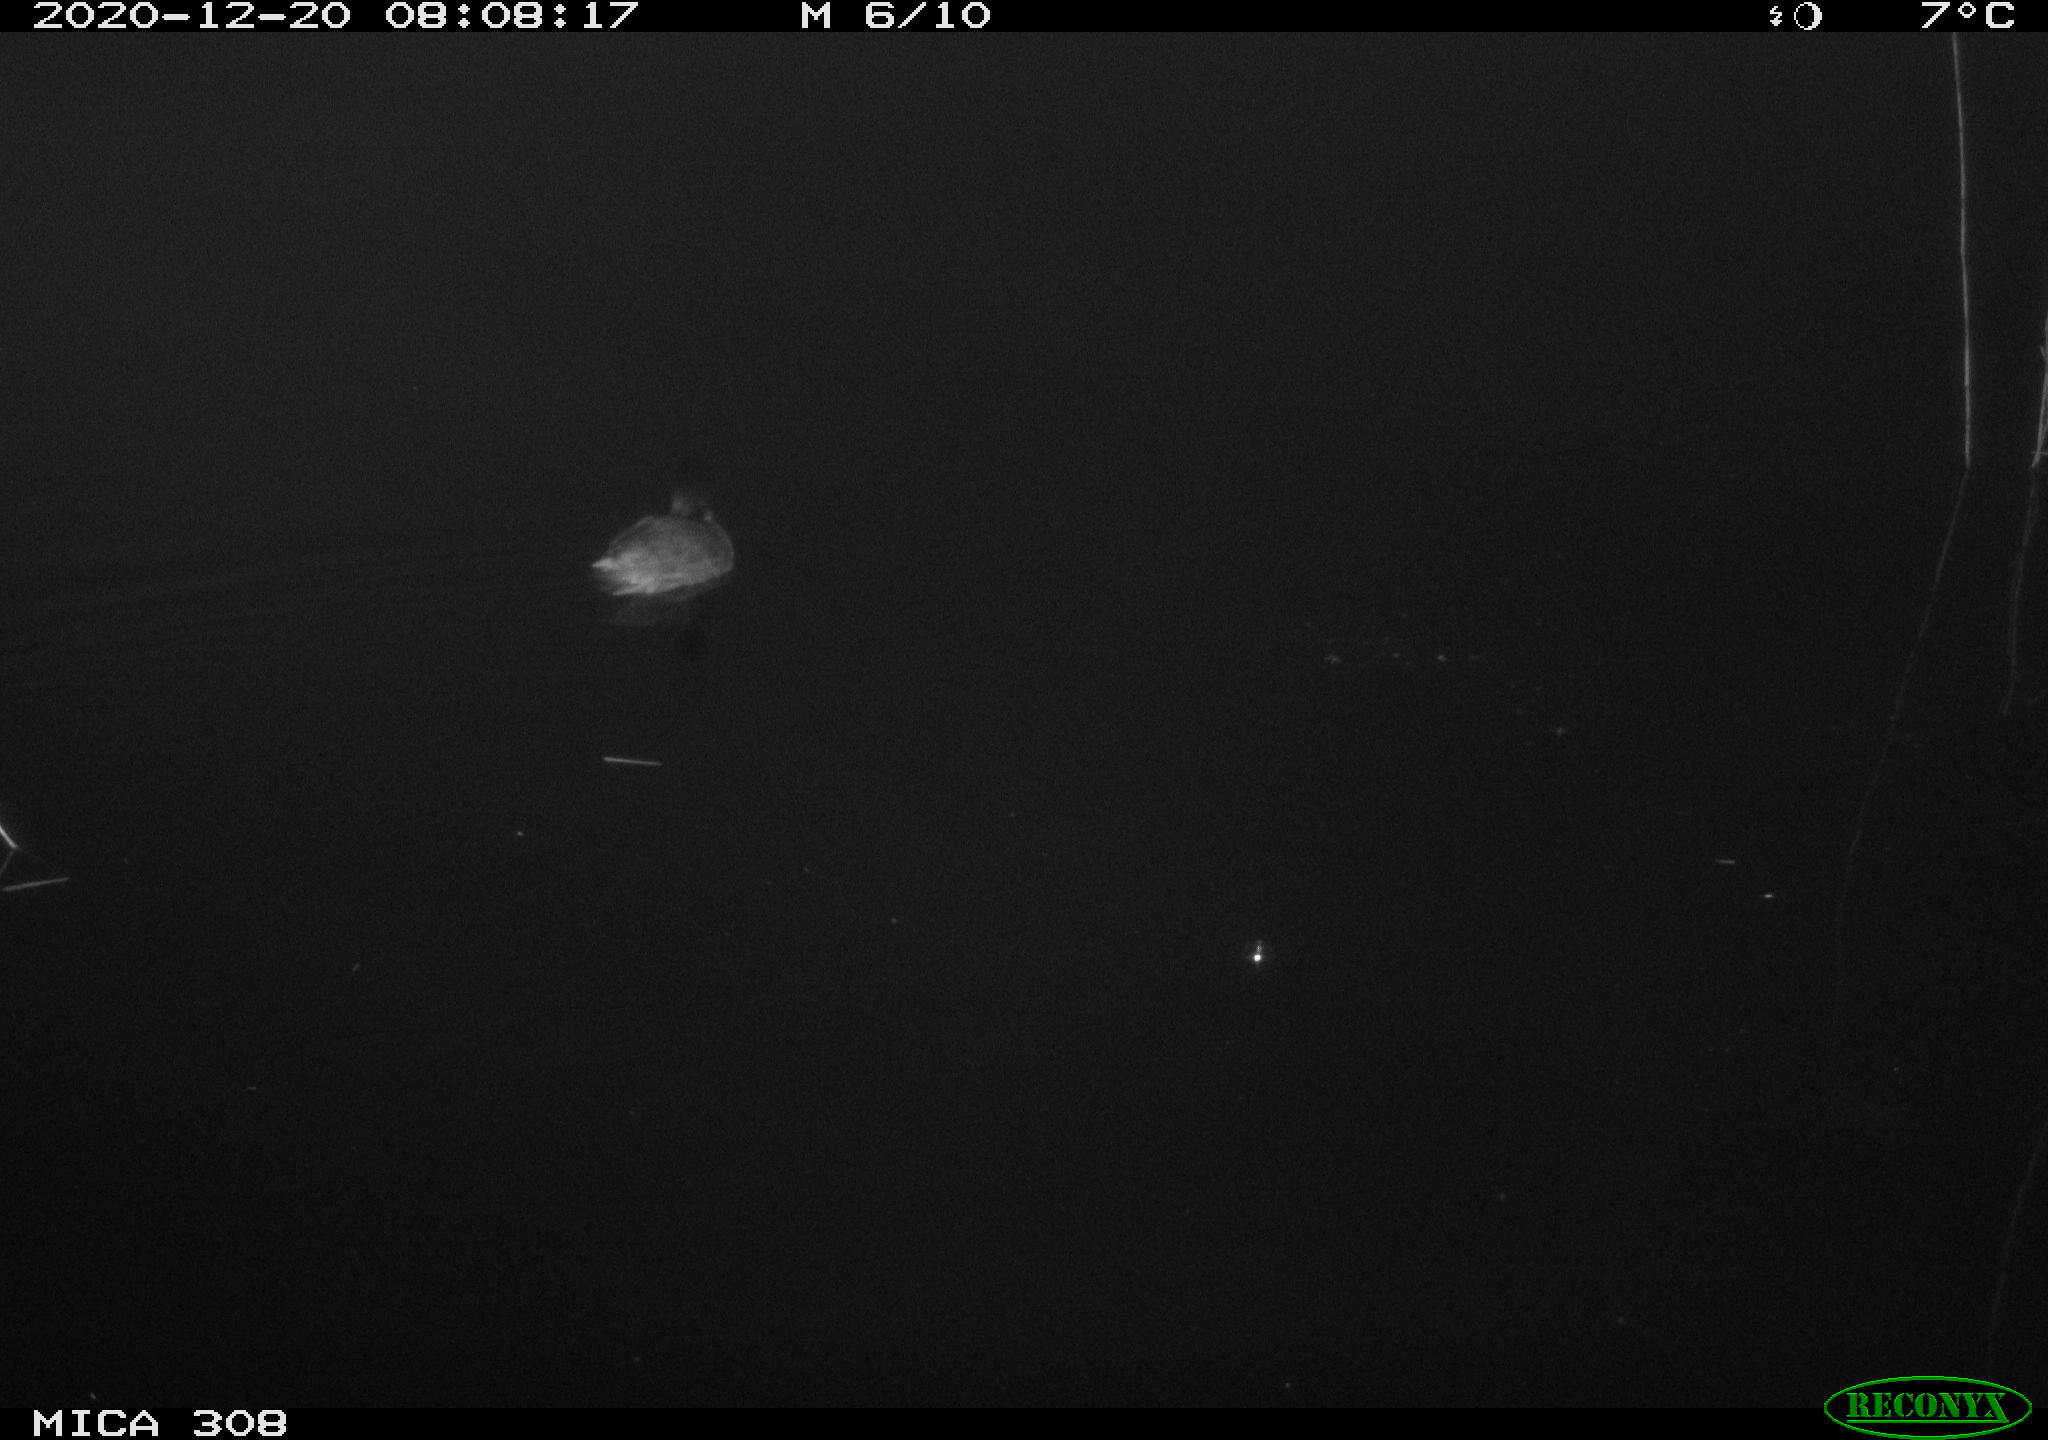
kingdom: Animalia
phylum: Chordata
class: Aves
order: Gruiformes
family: Rallidae
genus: Fulica
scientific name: Fulica atra
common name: Eurasian coot
